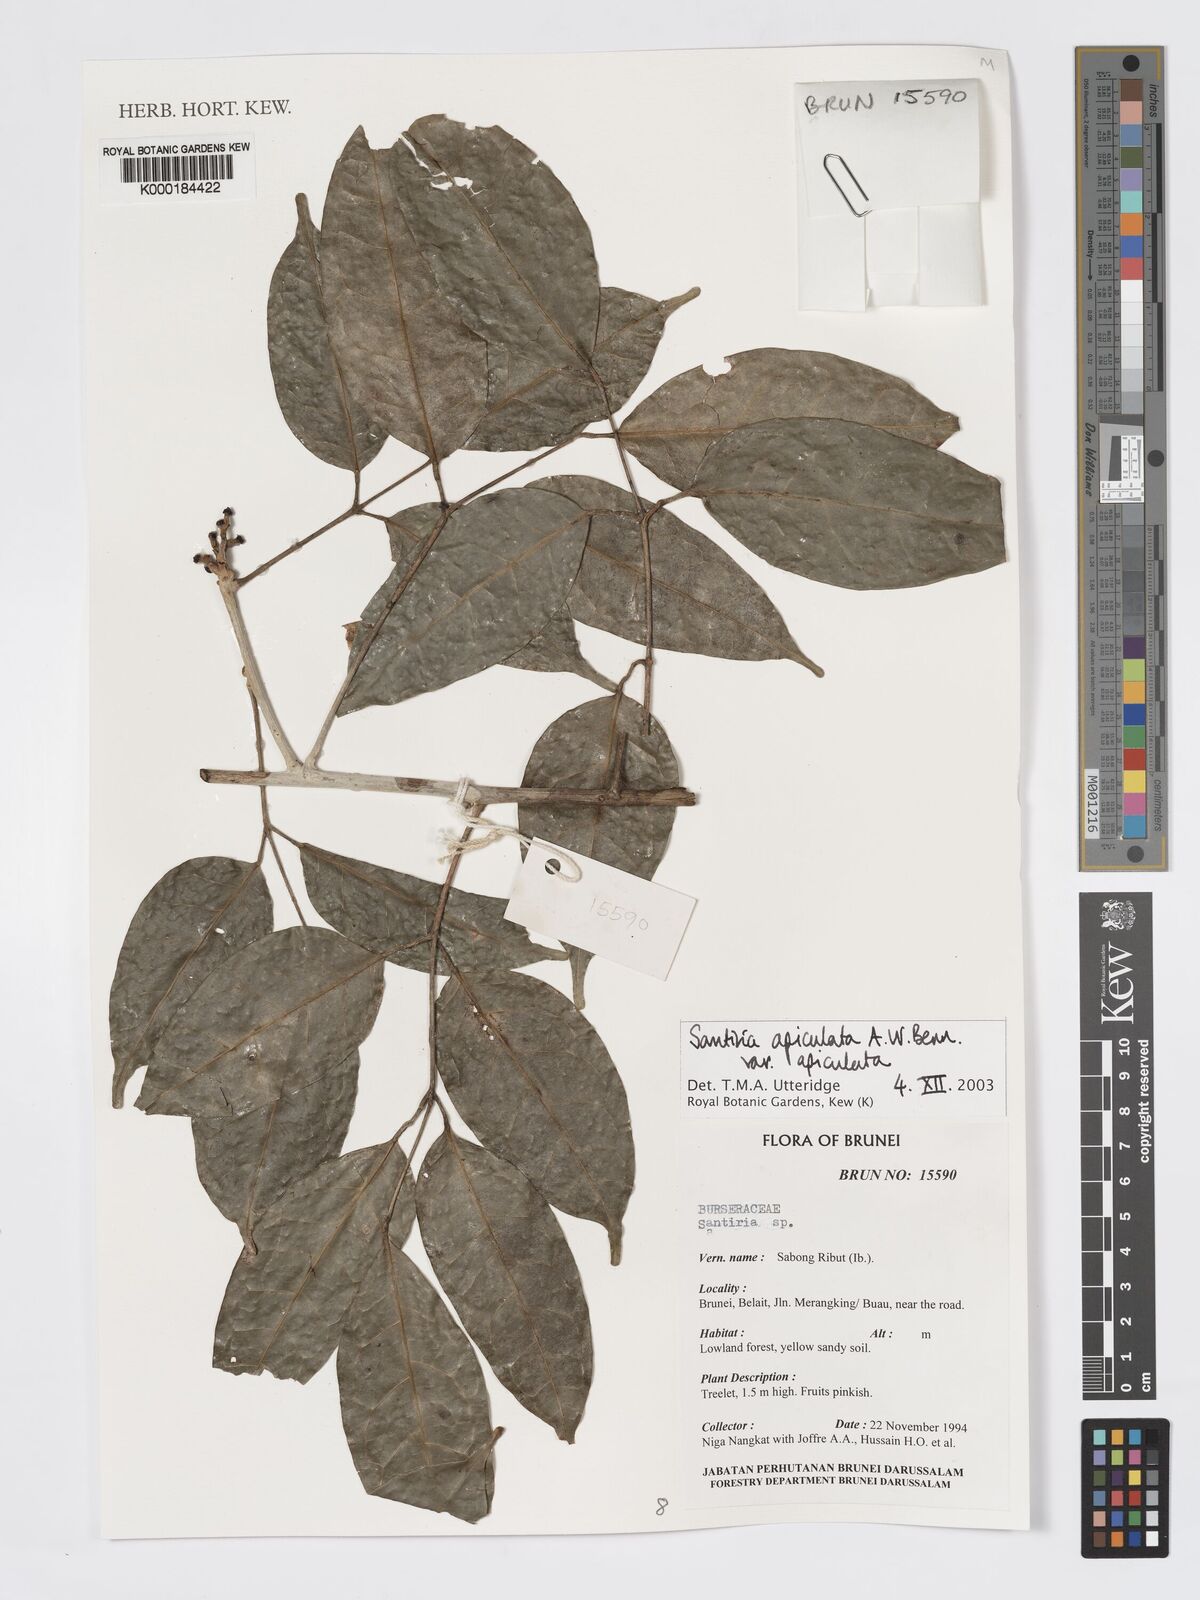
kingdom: Plantae
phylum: Tracheophyta
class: Magnoliopsida
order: Sapindales
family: Burseraceae
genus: Santiria
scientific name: Santiria apiculata
